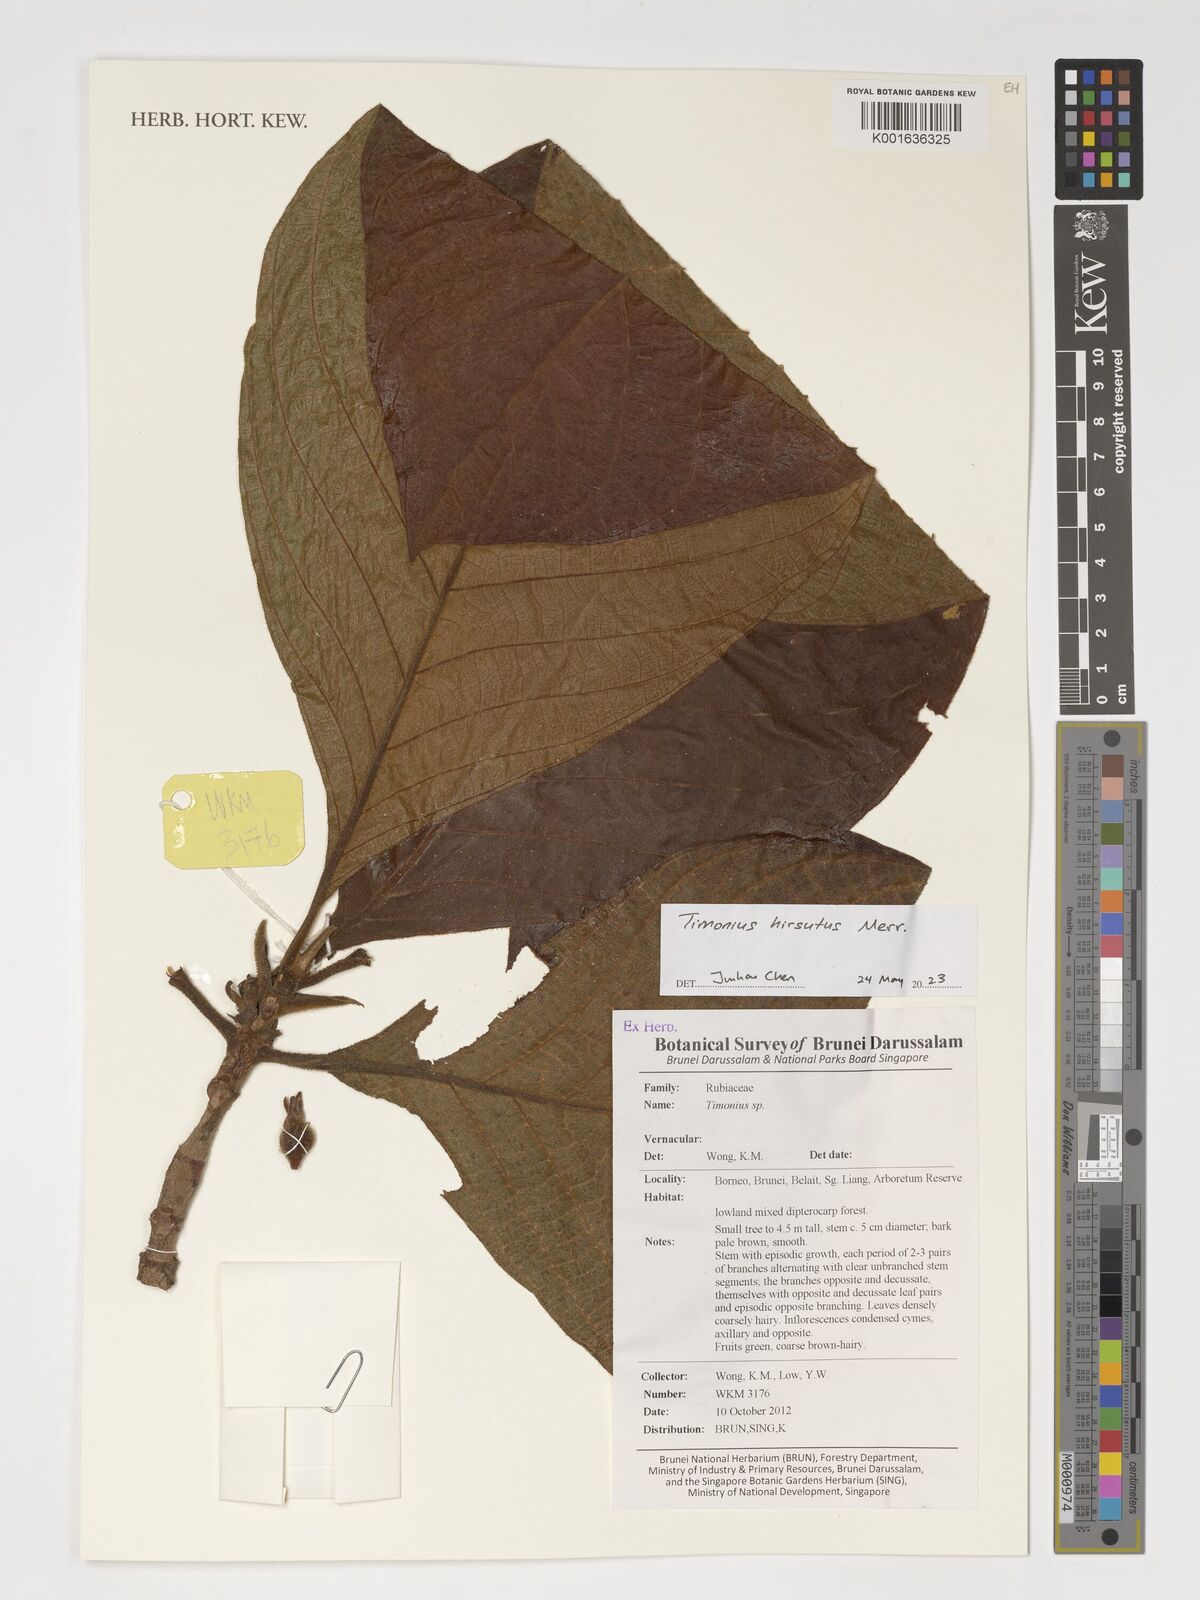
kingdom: Plantae
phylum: Tracheophyta
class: Magnoliopsida
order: Gentianales
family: Rubiaceae
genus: Timonius
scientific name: Timonius hirsutus
